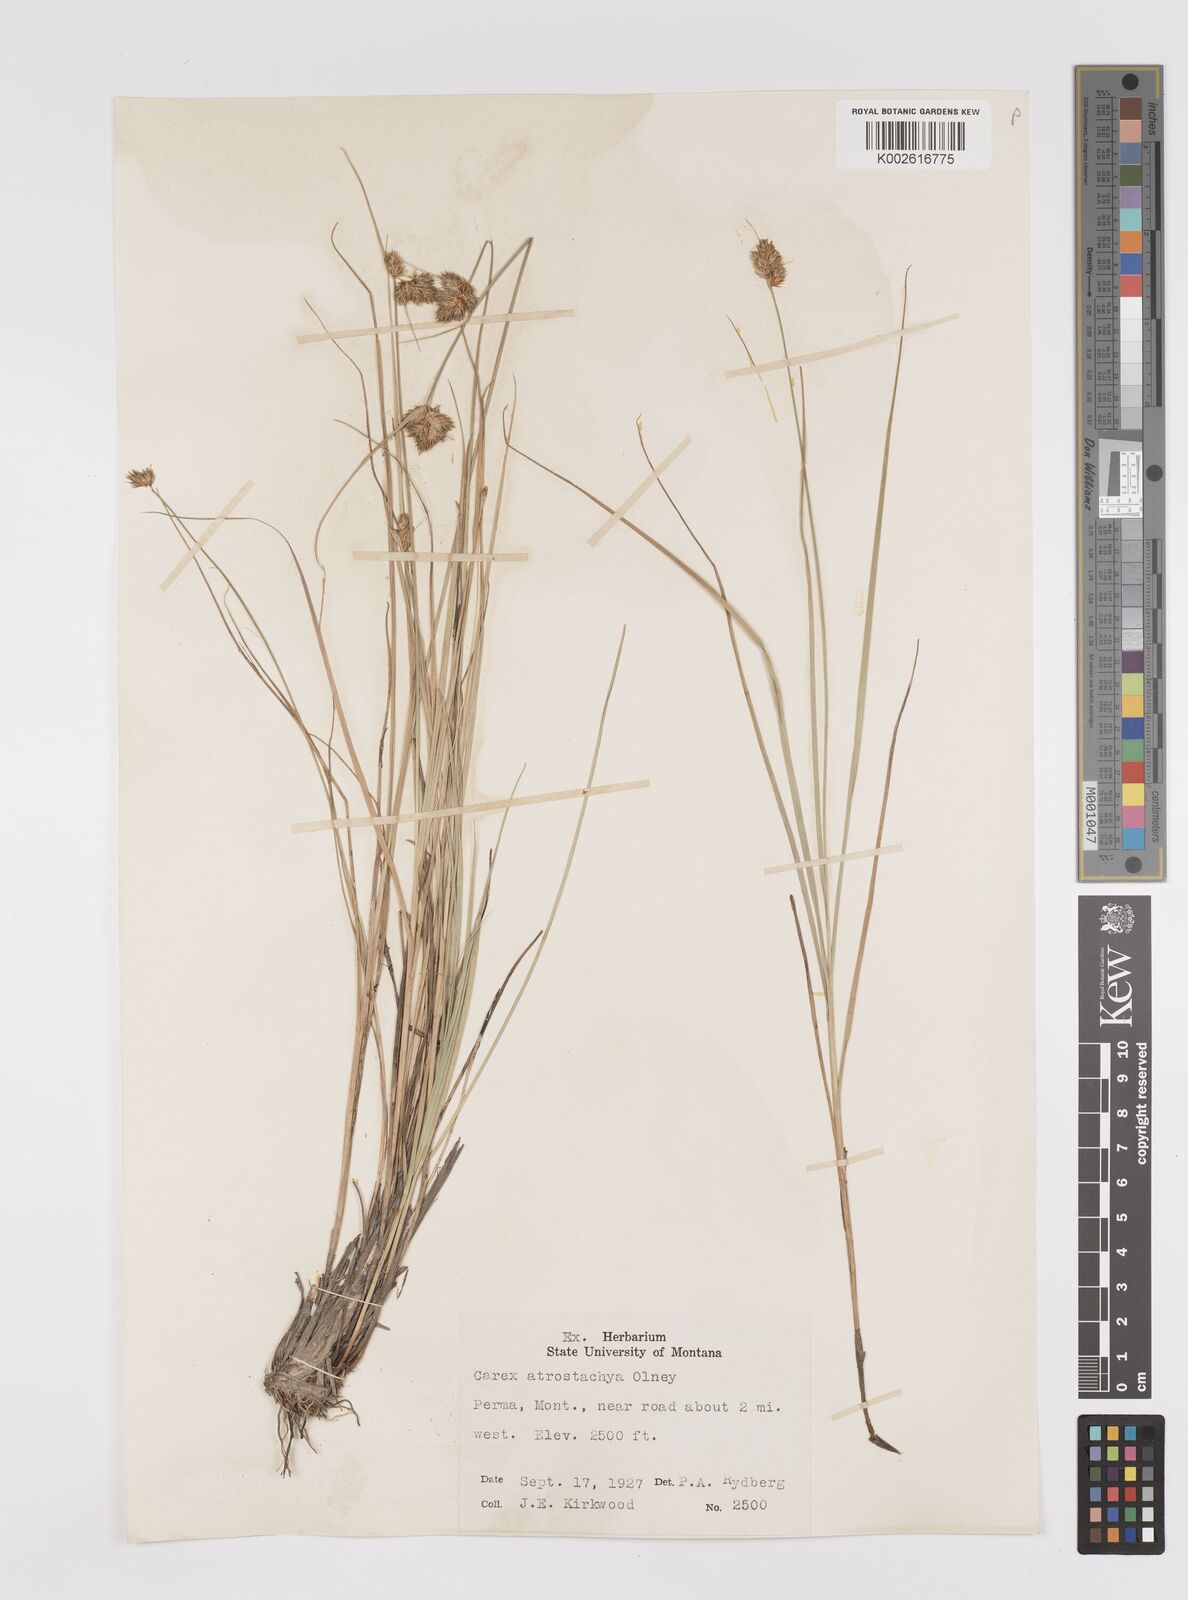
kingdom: Plantae
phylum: Tracheophyta
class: Liliopsida
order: Poales
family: Cyperaceae
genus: Carex
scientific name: Carex athrostachya
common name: Slenderbeak sedge
